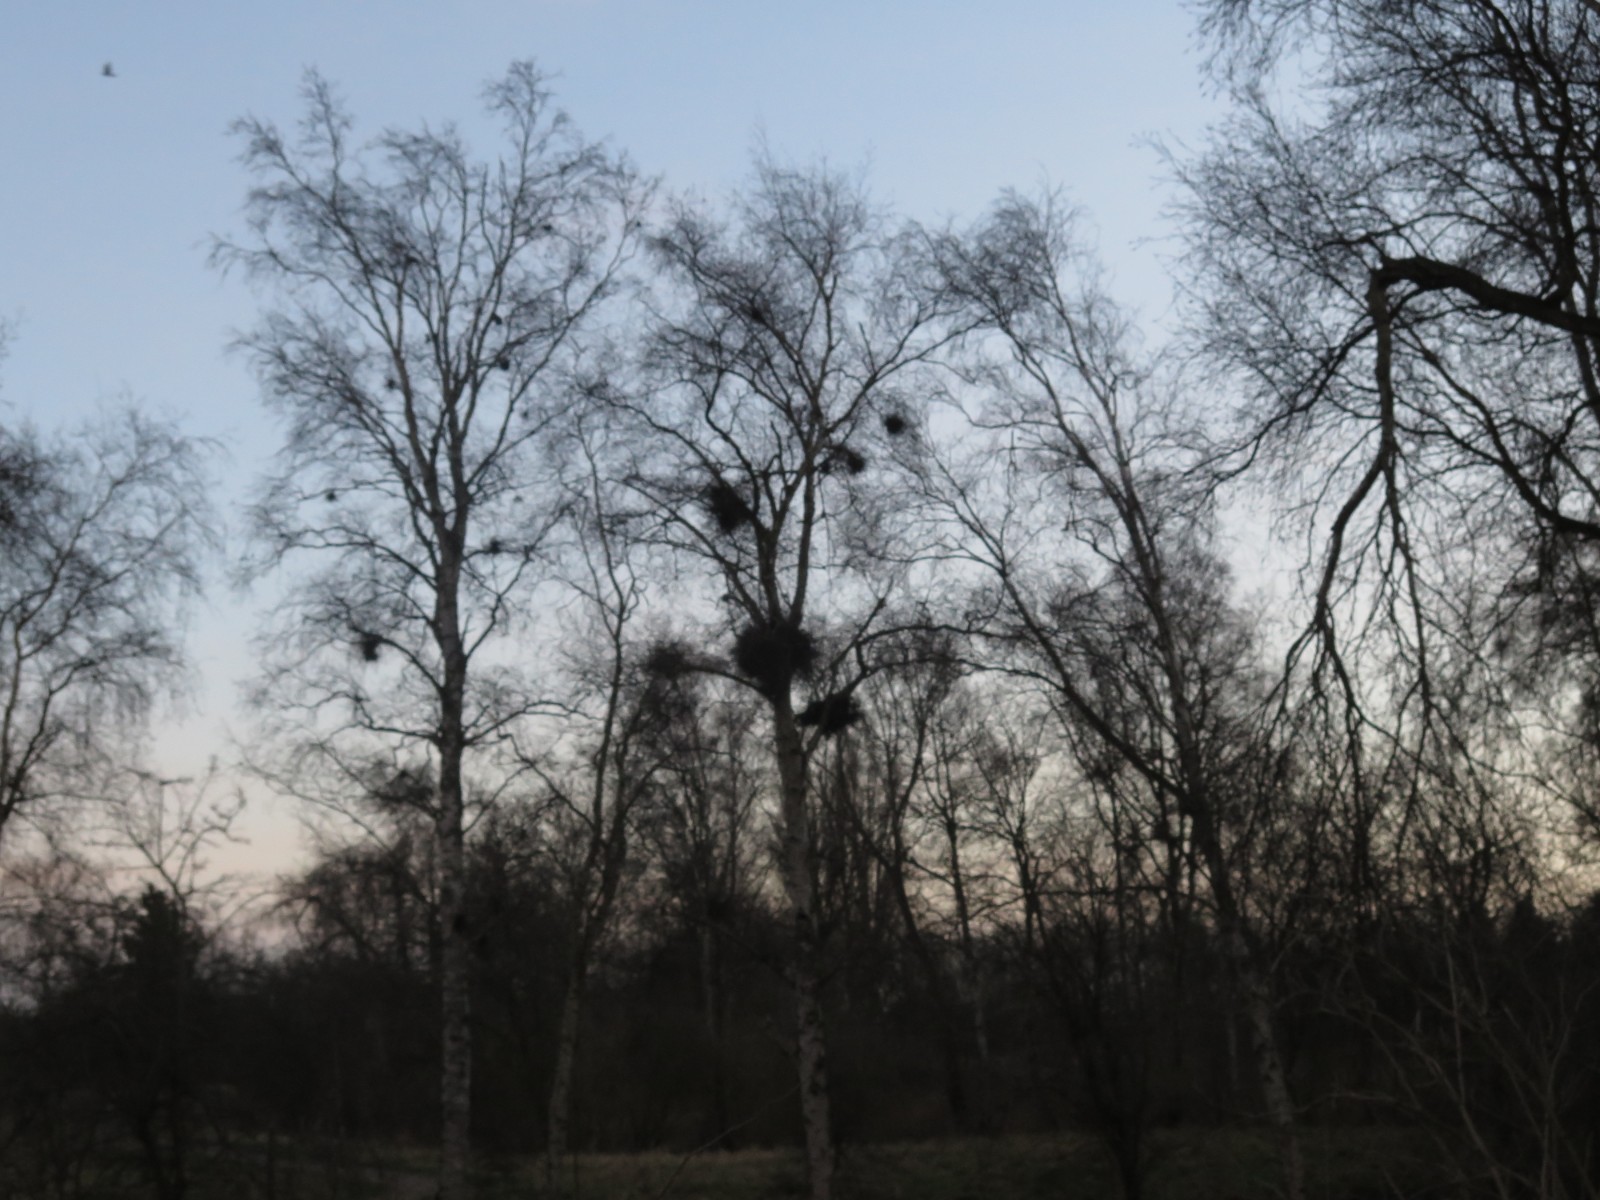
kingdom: Fungi
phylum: Ascomycota
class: Taphrinomycetes
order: Taphrinales
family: Taphrinaceae
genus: Taphrina
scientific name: Taphrina betulina
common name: hekse-sækdug
